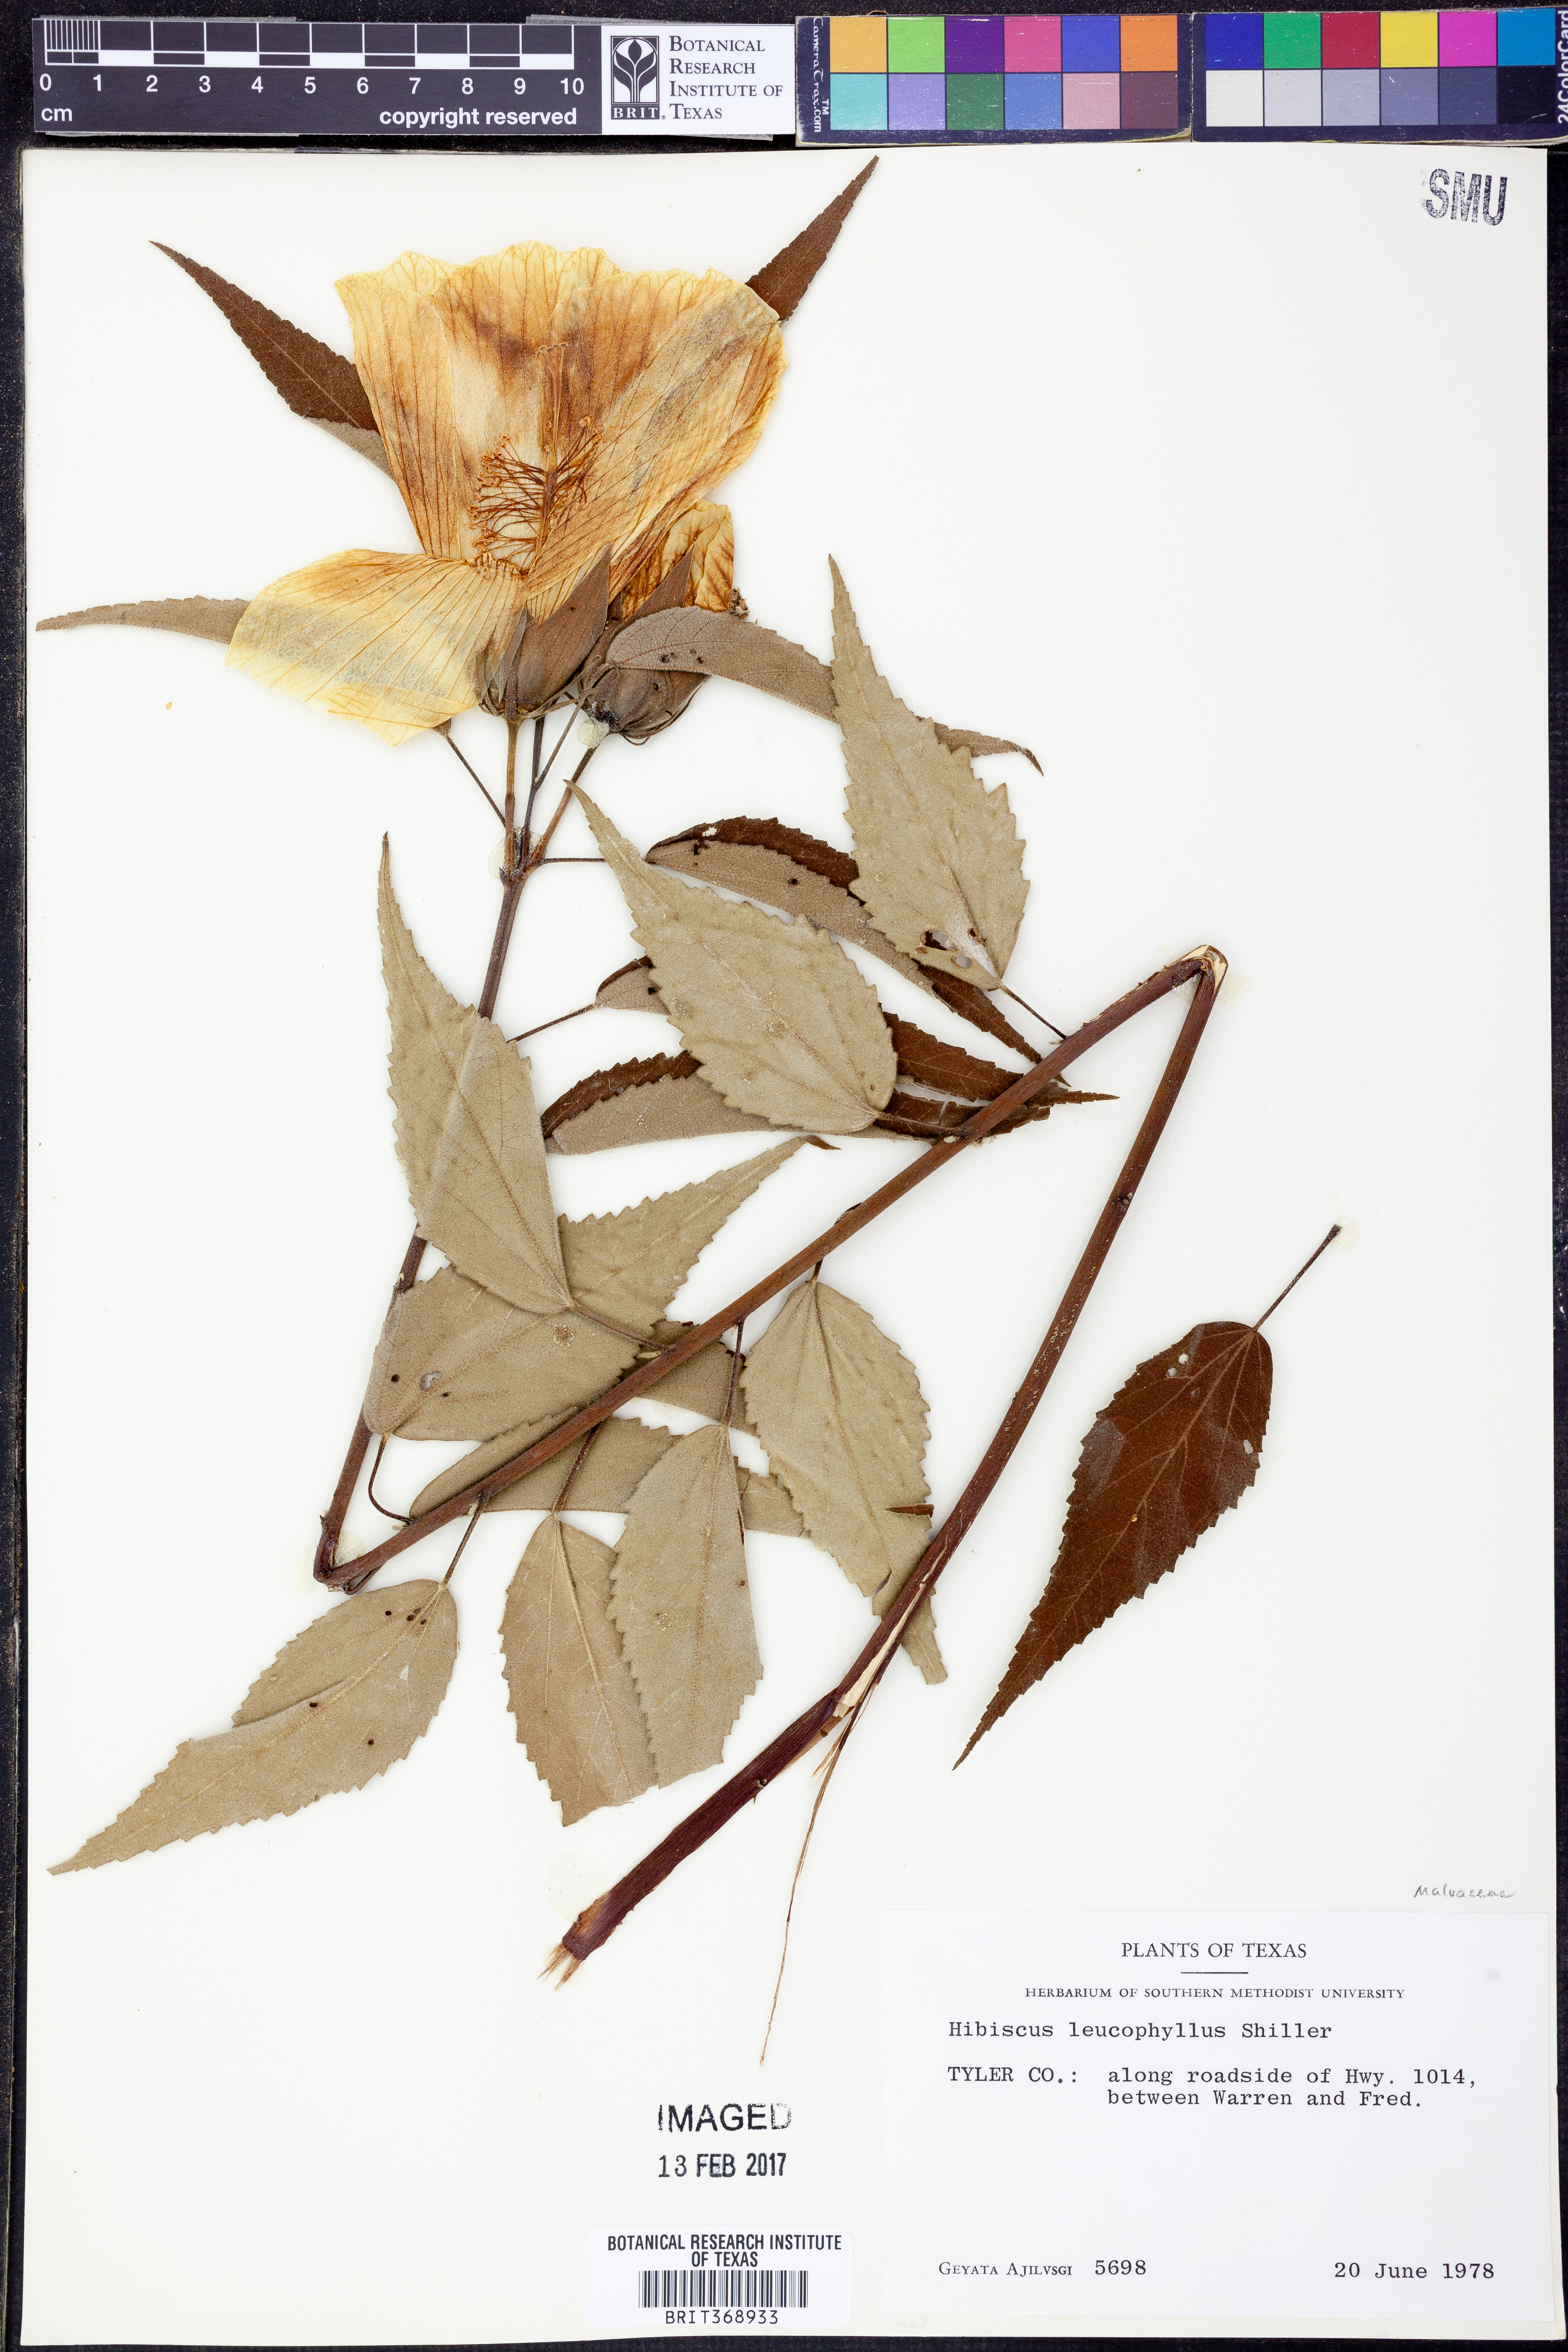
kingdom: Plantae
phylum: Tracheophyta
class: Magnoliopsida
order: Malvales
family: Malvaceae
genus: Hibiscus
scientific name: Hibiscus moscheutos
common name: Common rose-mallow
